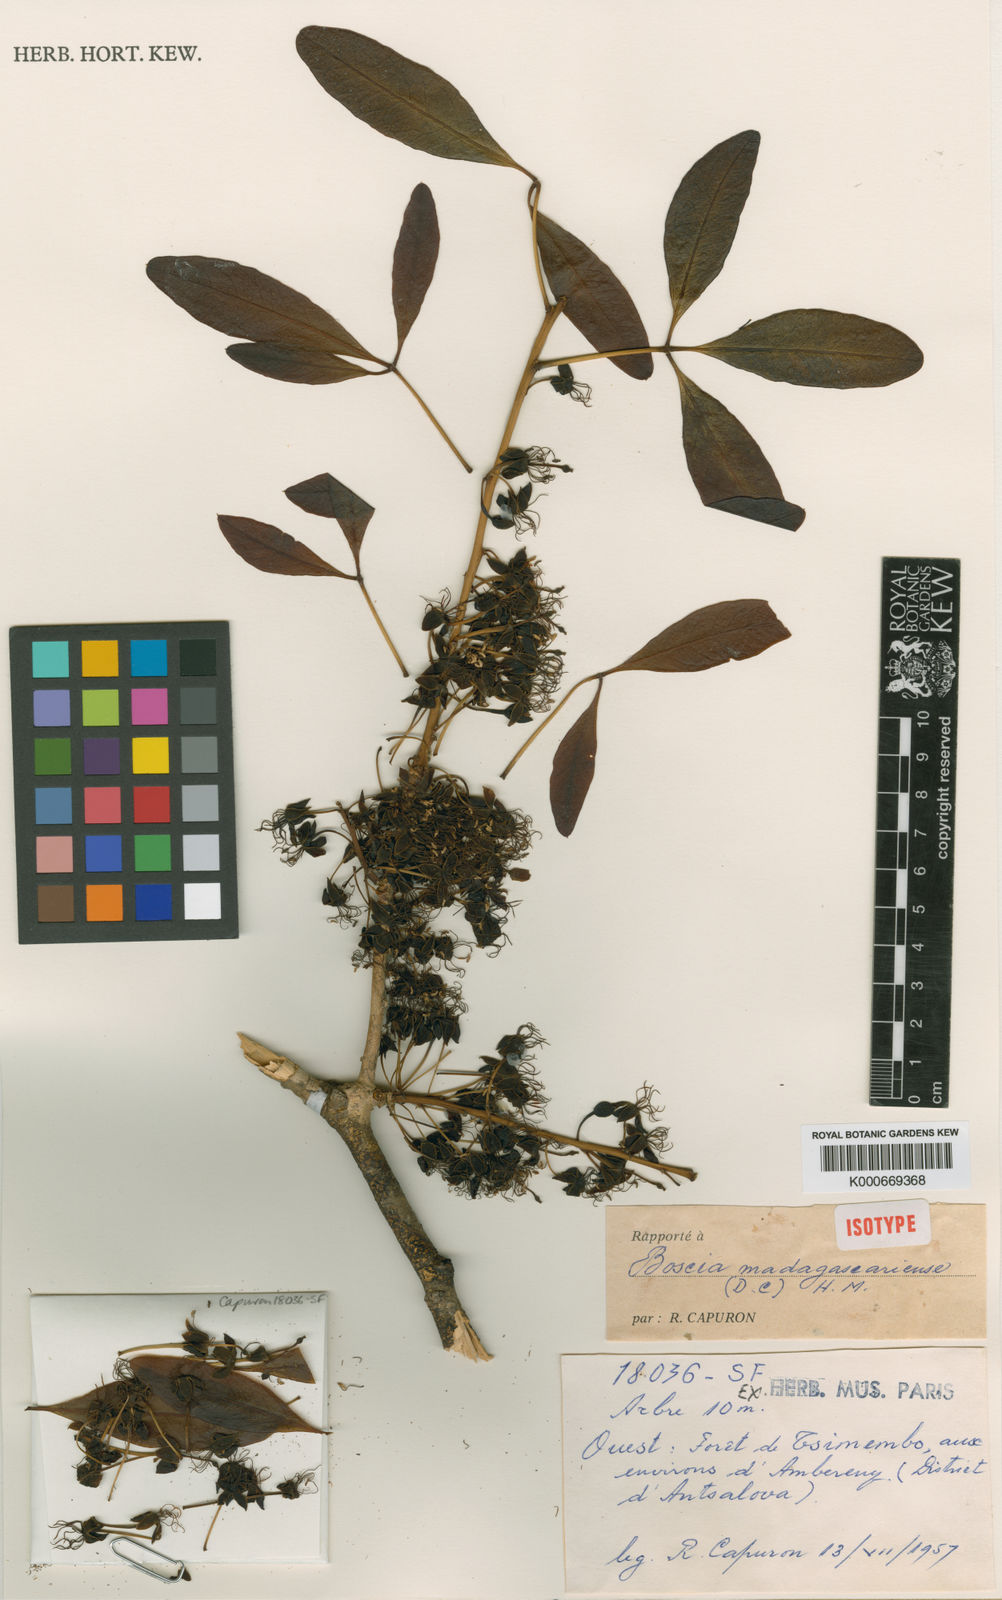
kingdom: Plantae
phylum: Tracheophyta
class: Magnoliopsida
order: Brassicales
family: Capparaceae
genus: Boscia
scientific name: Boscia madagascariensis
